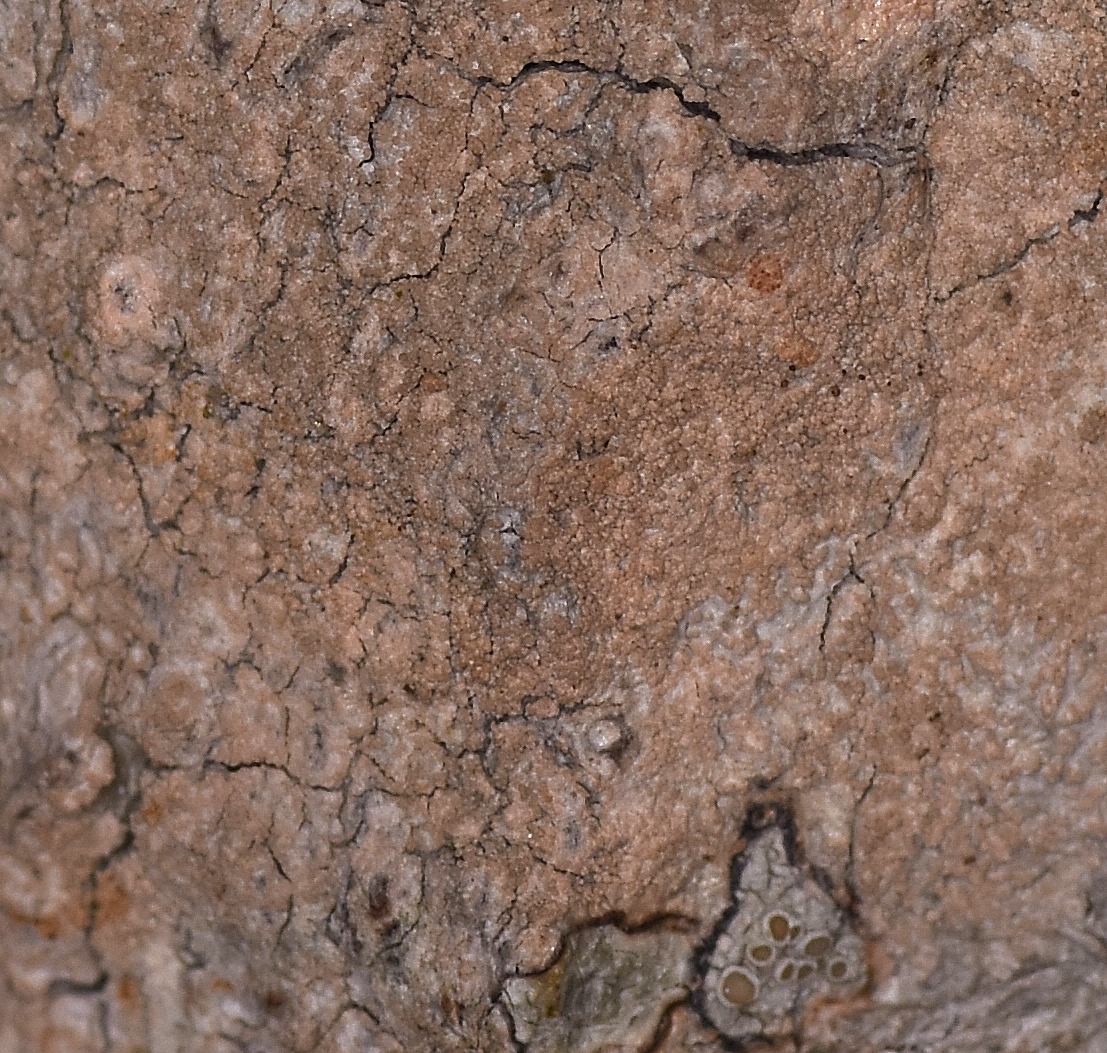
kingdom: Fungi
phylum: Ascomycota
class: Lecanoromycetes
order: Pertusariales
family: Pertusariaceae
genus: Pertusaria
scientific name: Pertusaria coccodes
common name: skurvet prikvortelav
